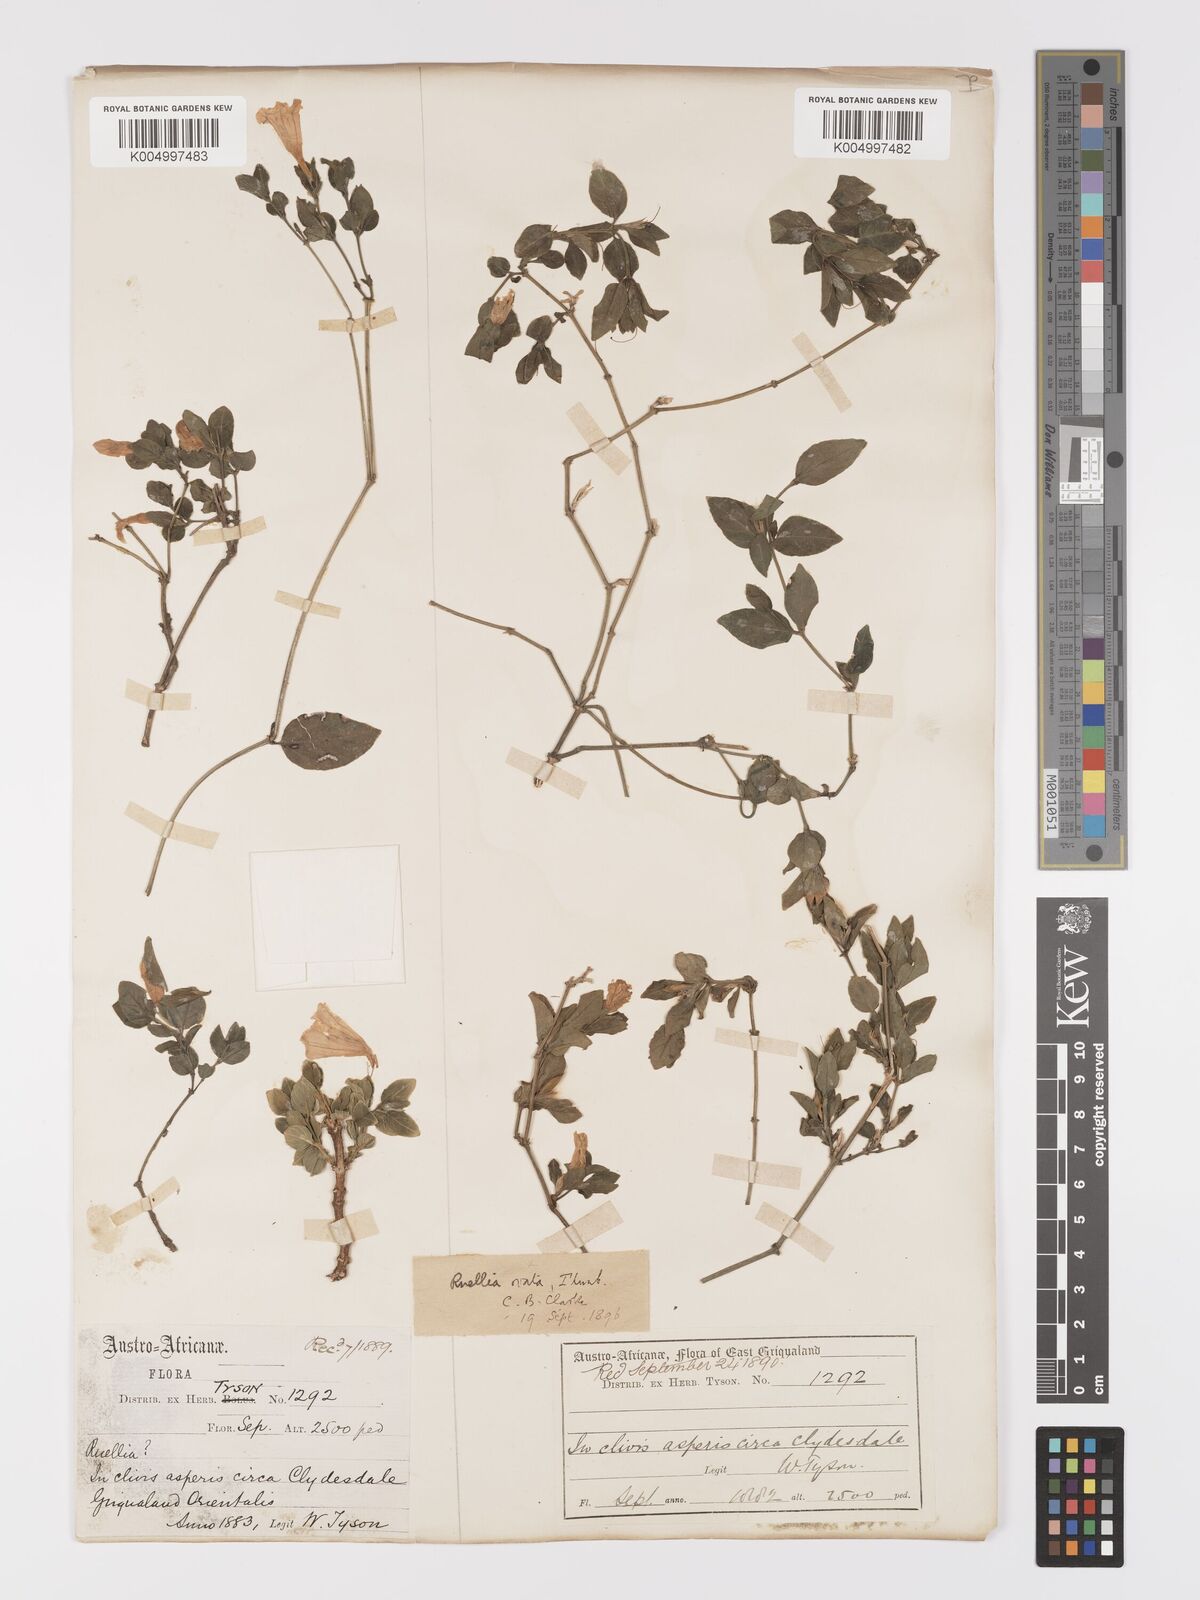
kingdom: Plantae
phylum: Tracheophyta
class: Magnoliopsida
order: Lamiales
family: Acanthaceae
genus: Ruellia
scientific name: Ruellia cordata
